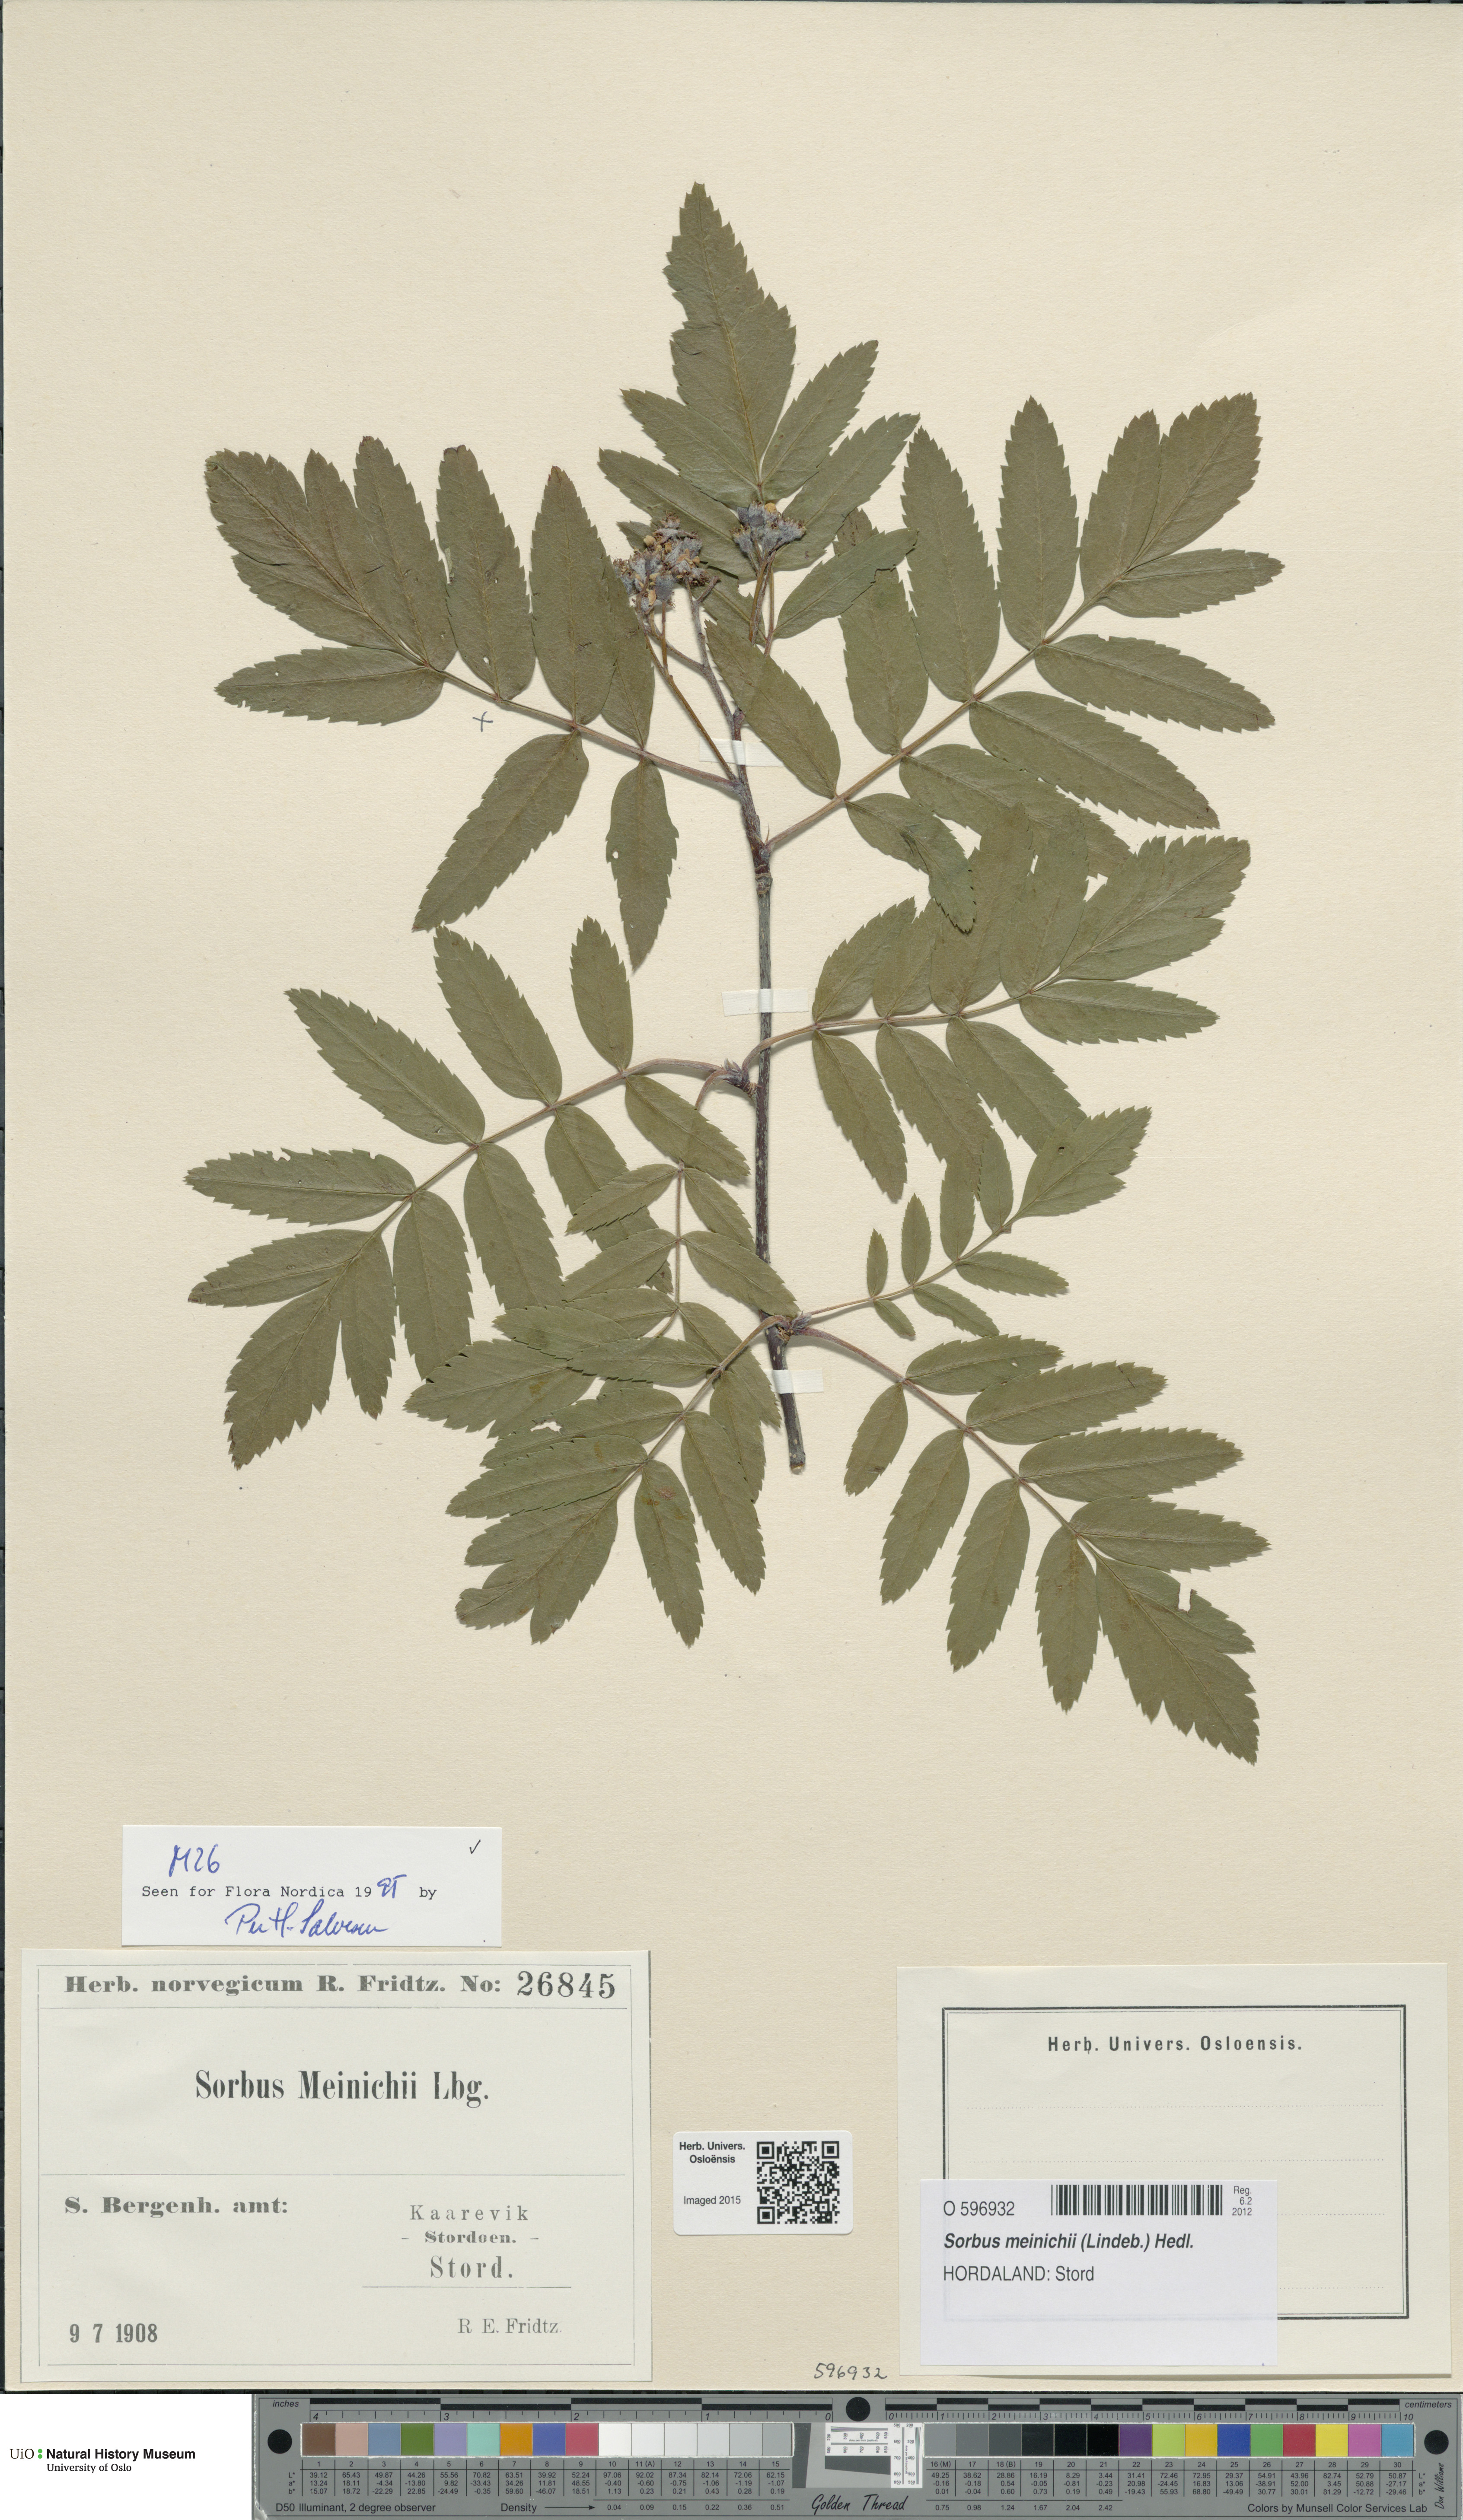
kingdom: Plantae
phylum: Tracheophyta
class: Magnoliopsida
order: Rosales
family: Rosaceae
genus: Hedlundia
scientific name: Hedlundia meinichii
